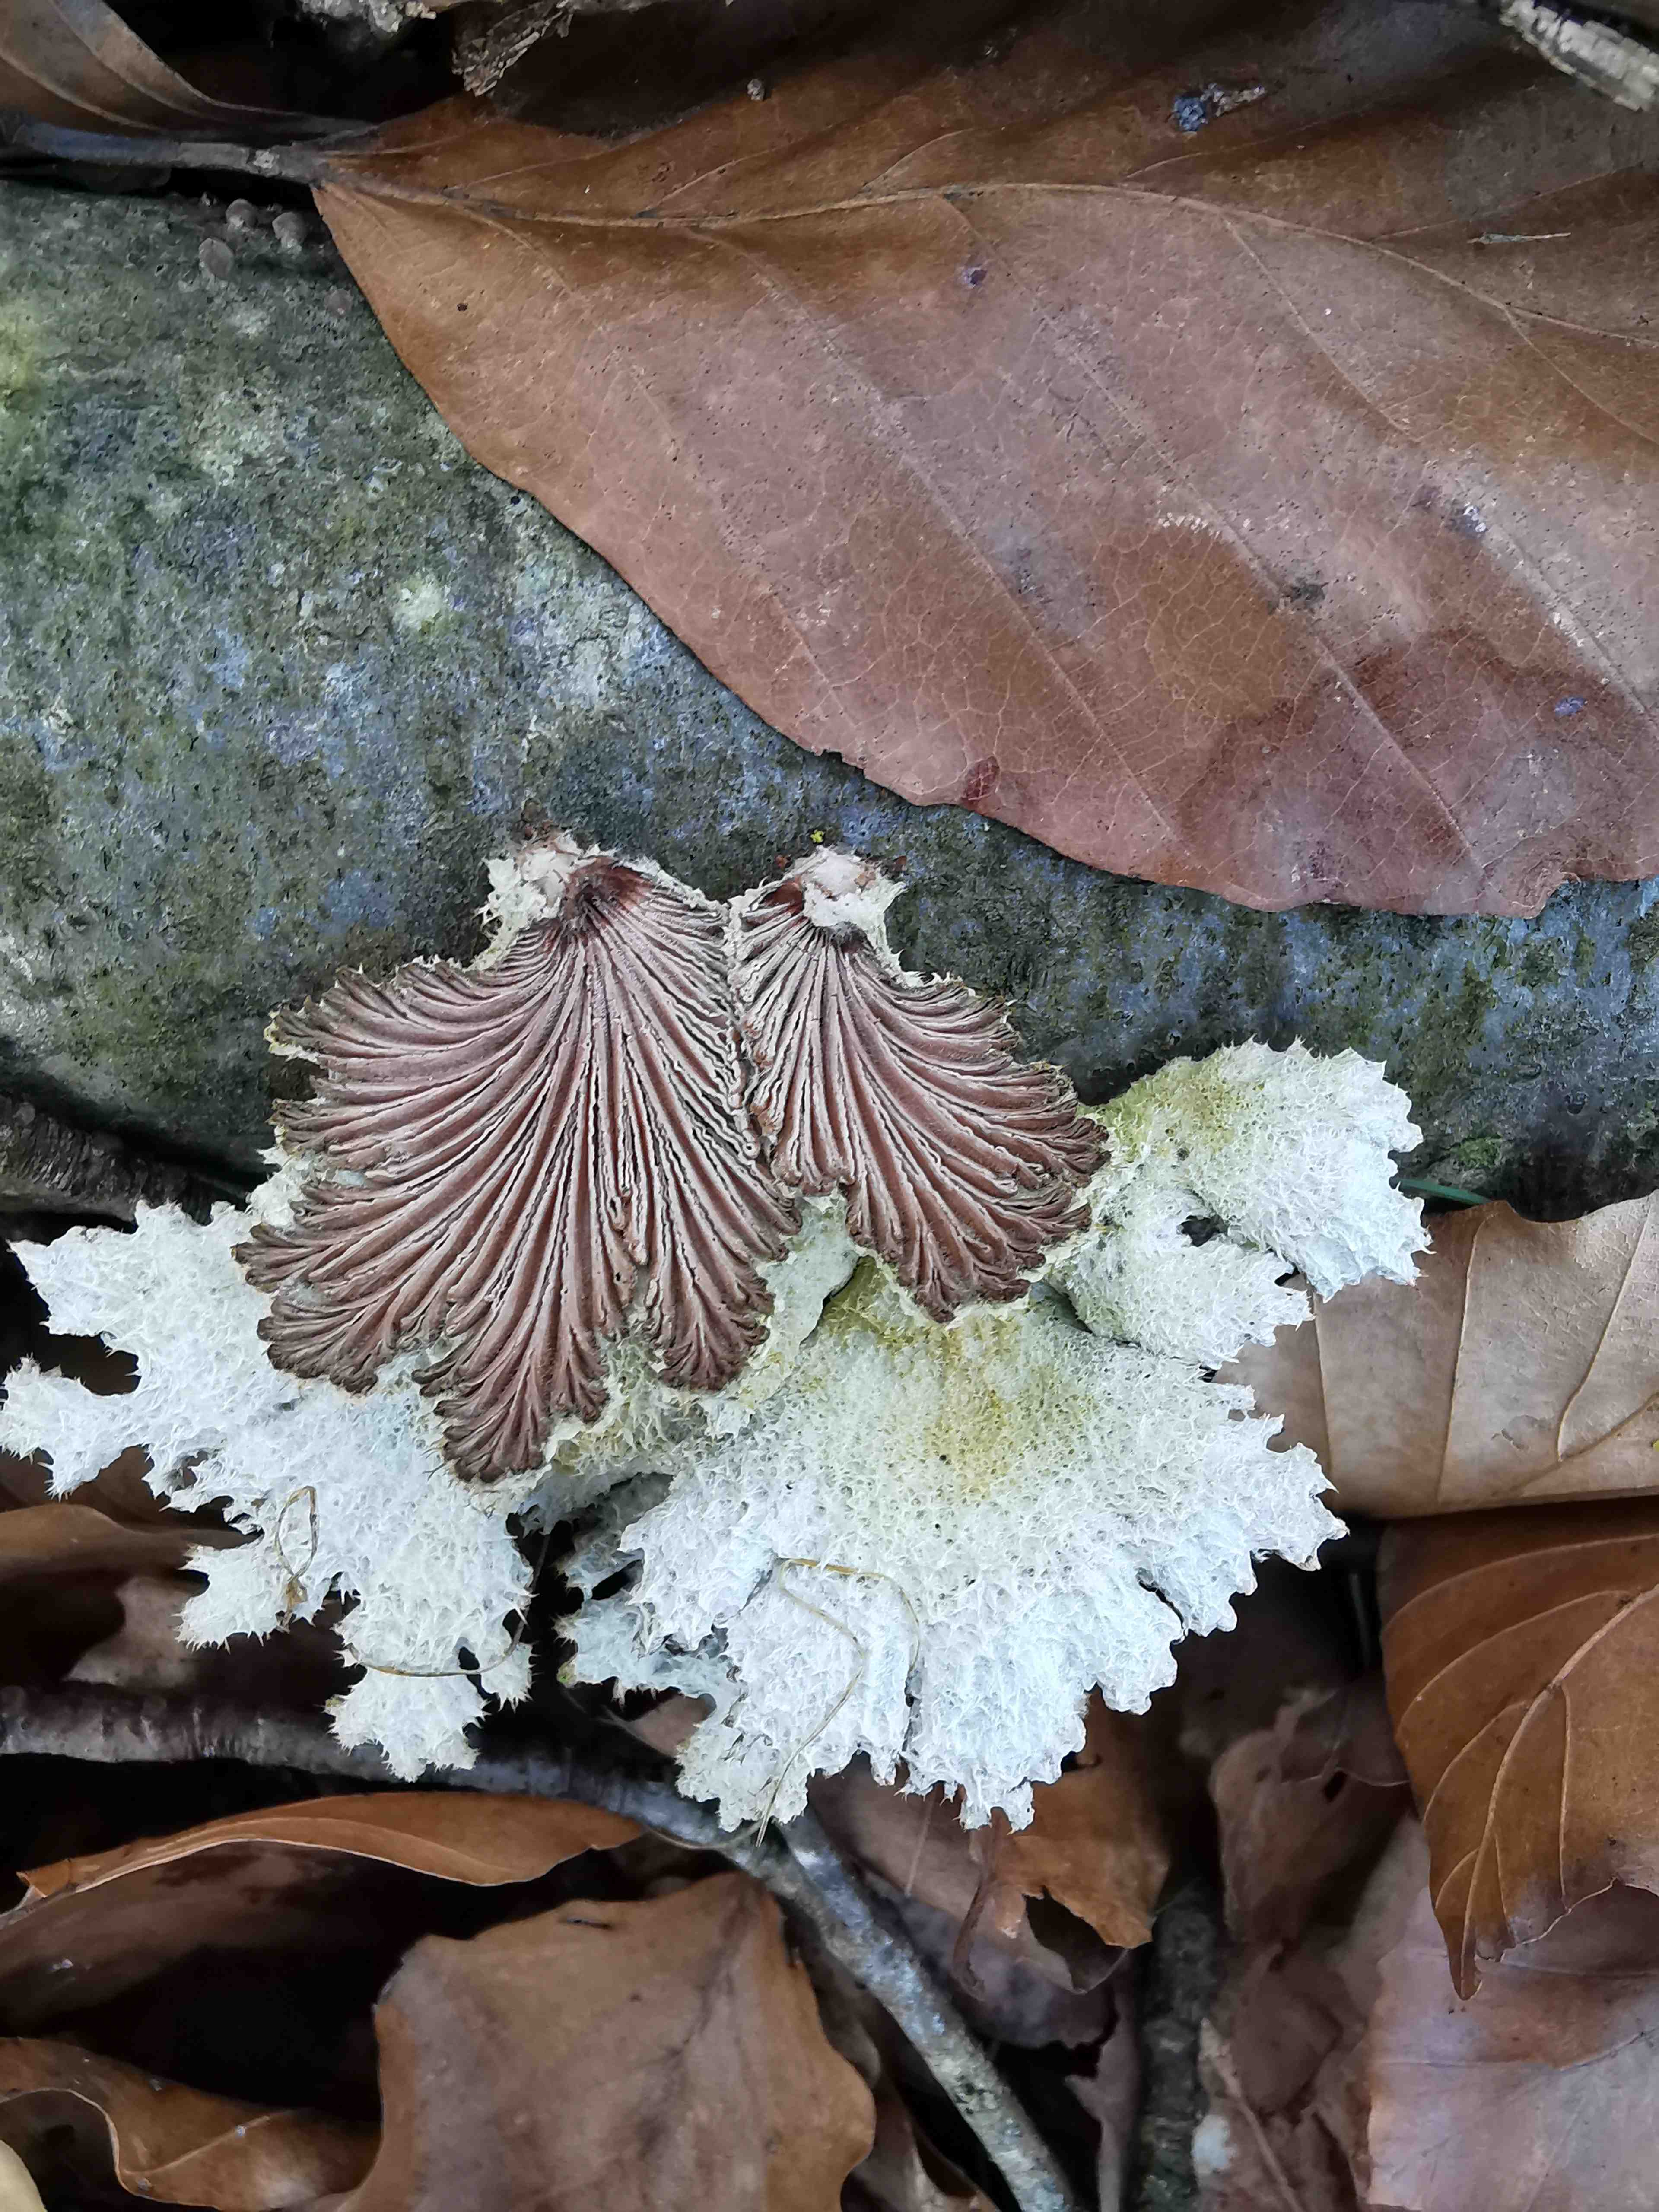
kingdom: Fungi
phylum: Basidiomycota
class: Agaricomycetes
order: Agaricales
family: Schizophyllaceae
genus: Schizophyllum
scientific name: Schizophyllum commune
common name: kløvblad
